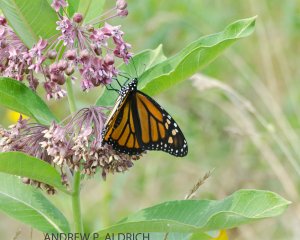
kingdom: Animalia
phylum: Arthropoda
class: Insecta
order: Lepidoptera
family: Nymphalidae
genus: Danaus
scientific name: Danaus plexippus
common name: Monarch
